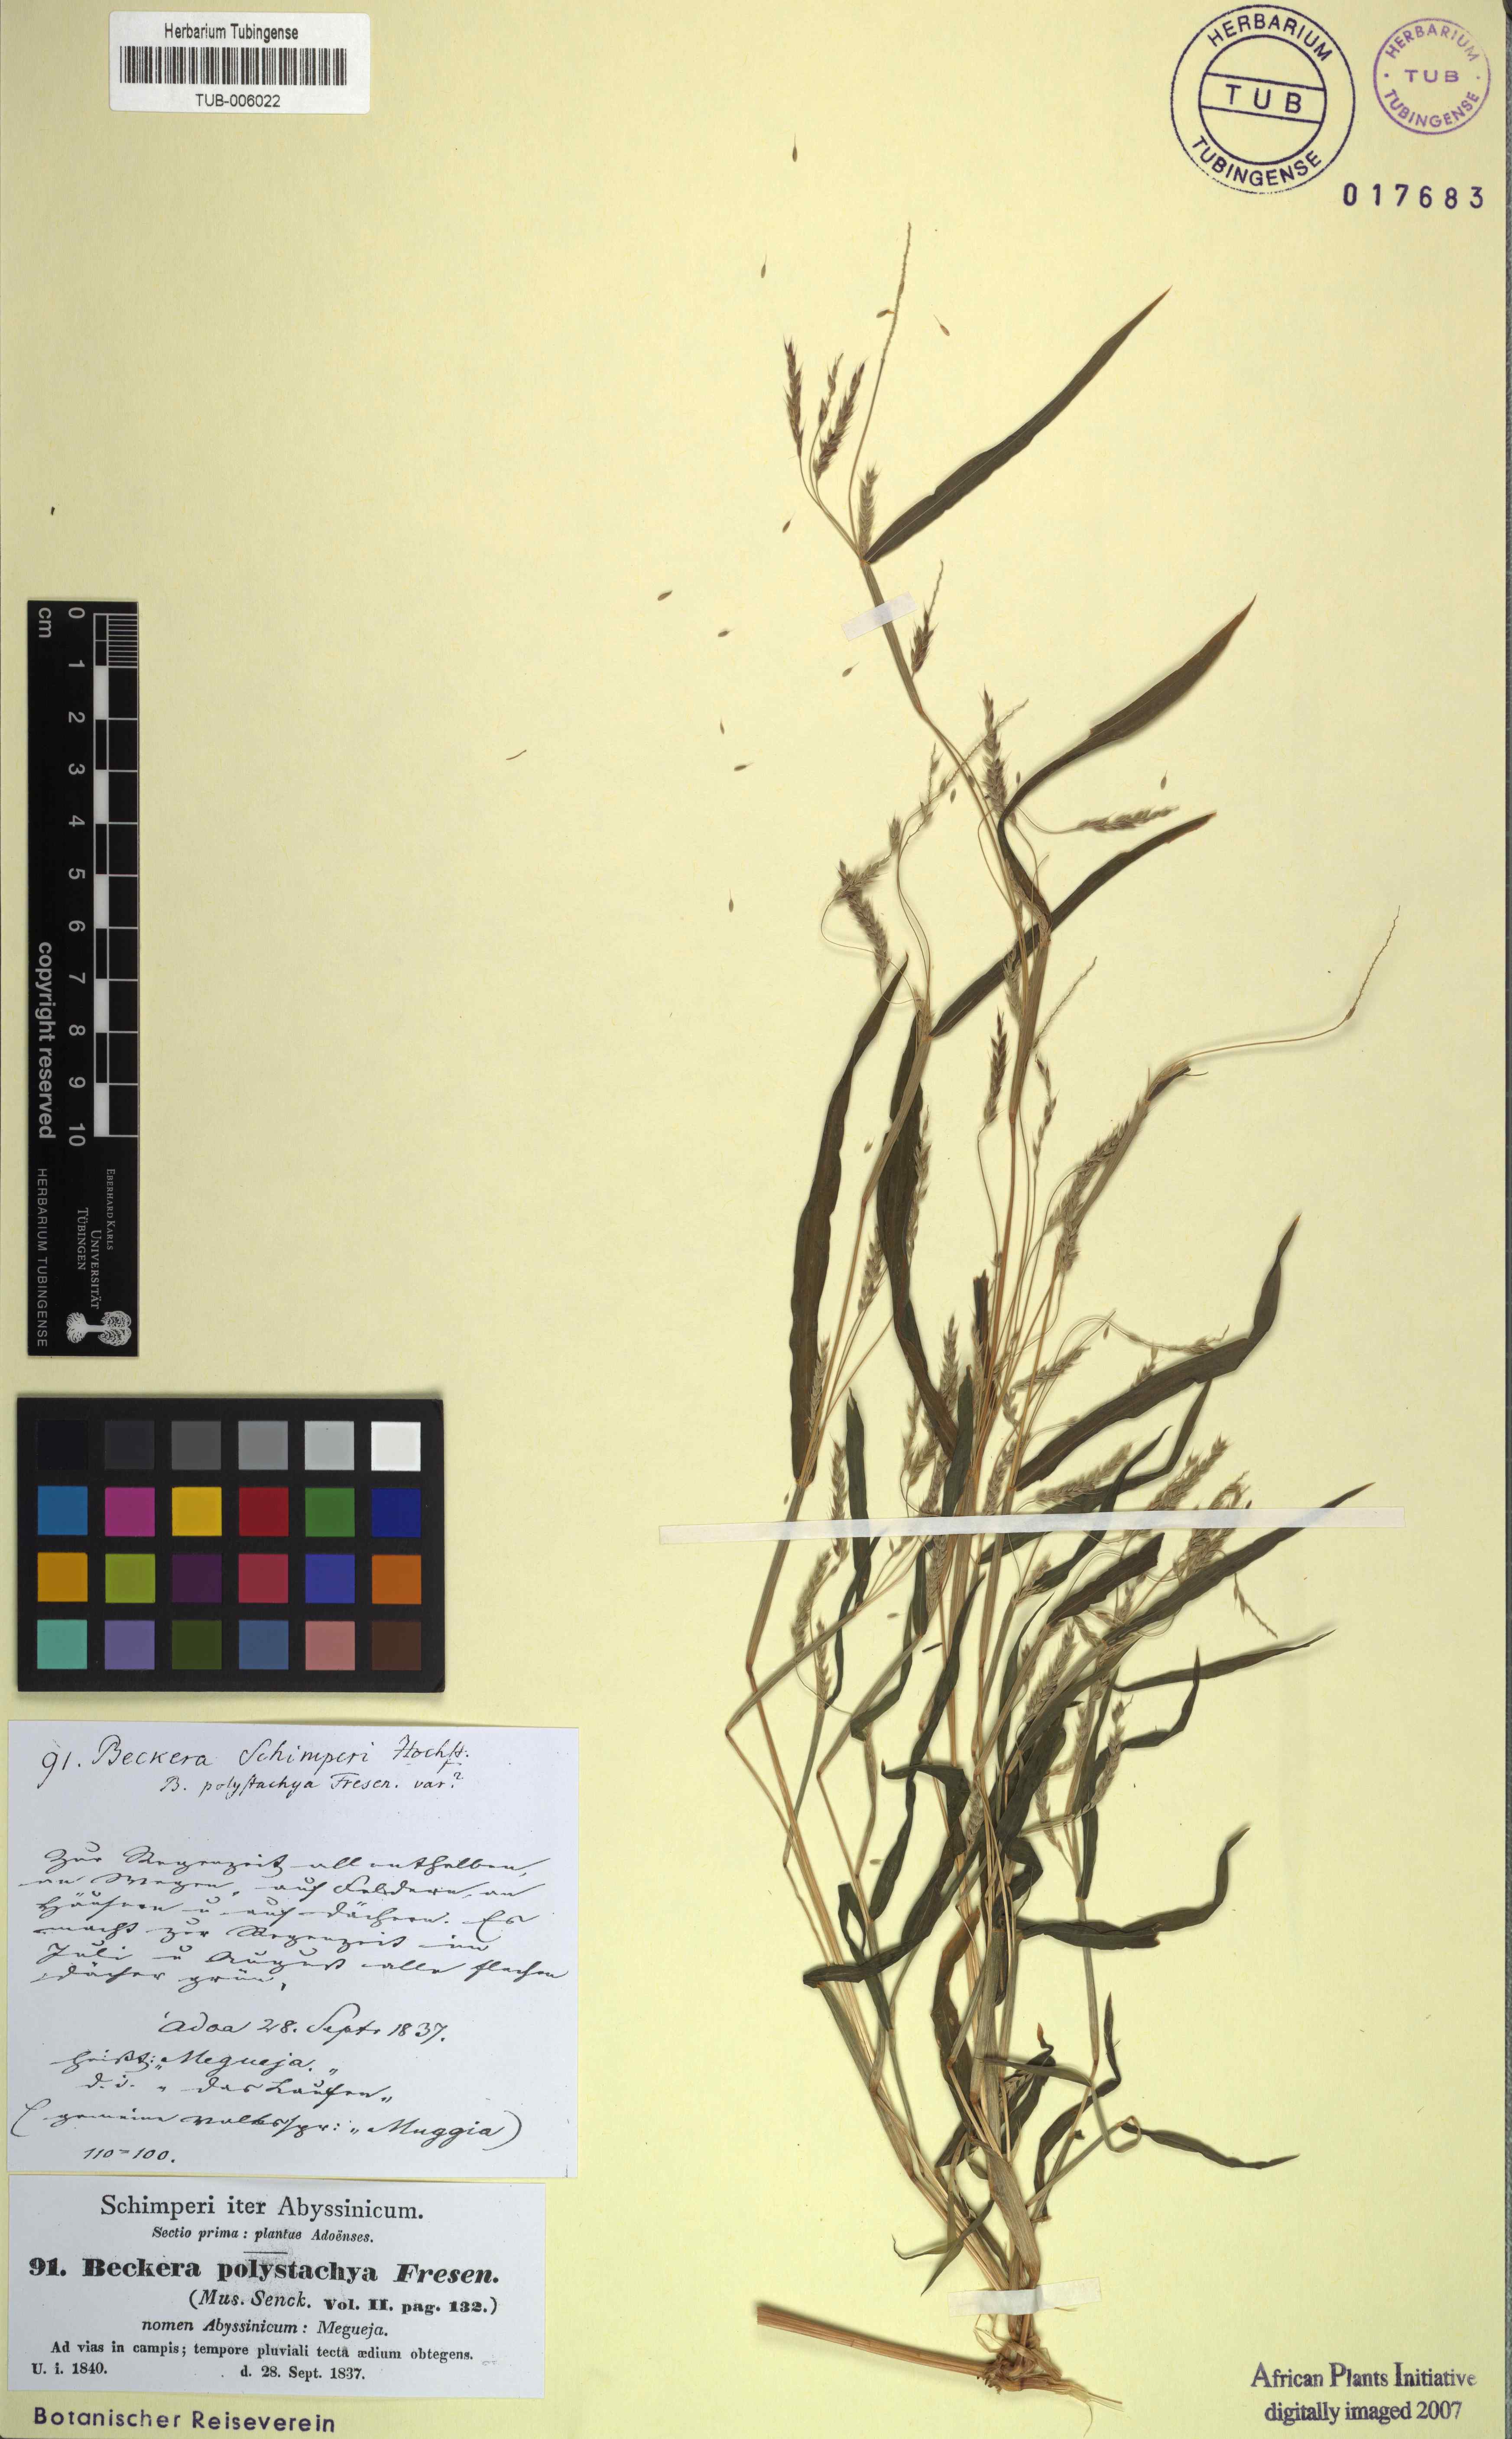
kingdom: Plantae
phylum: Tracheophyta
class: Liliopsida
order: Poales
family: Poaceae
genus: Snowdenia
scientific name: Snowdenia polystachya
